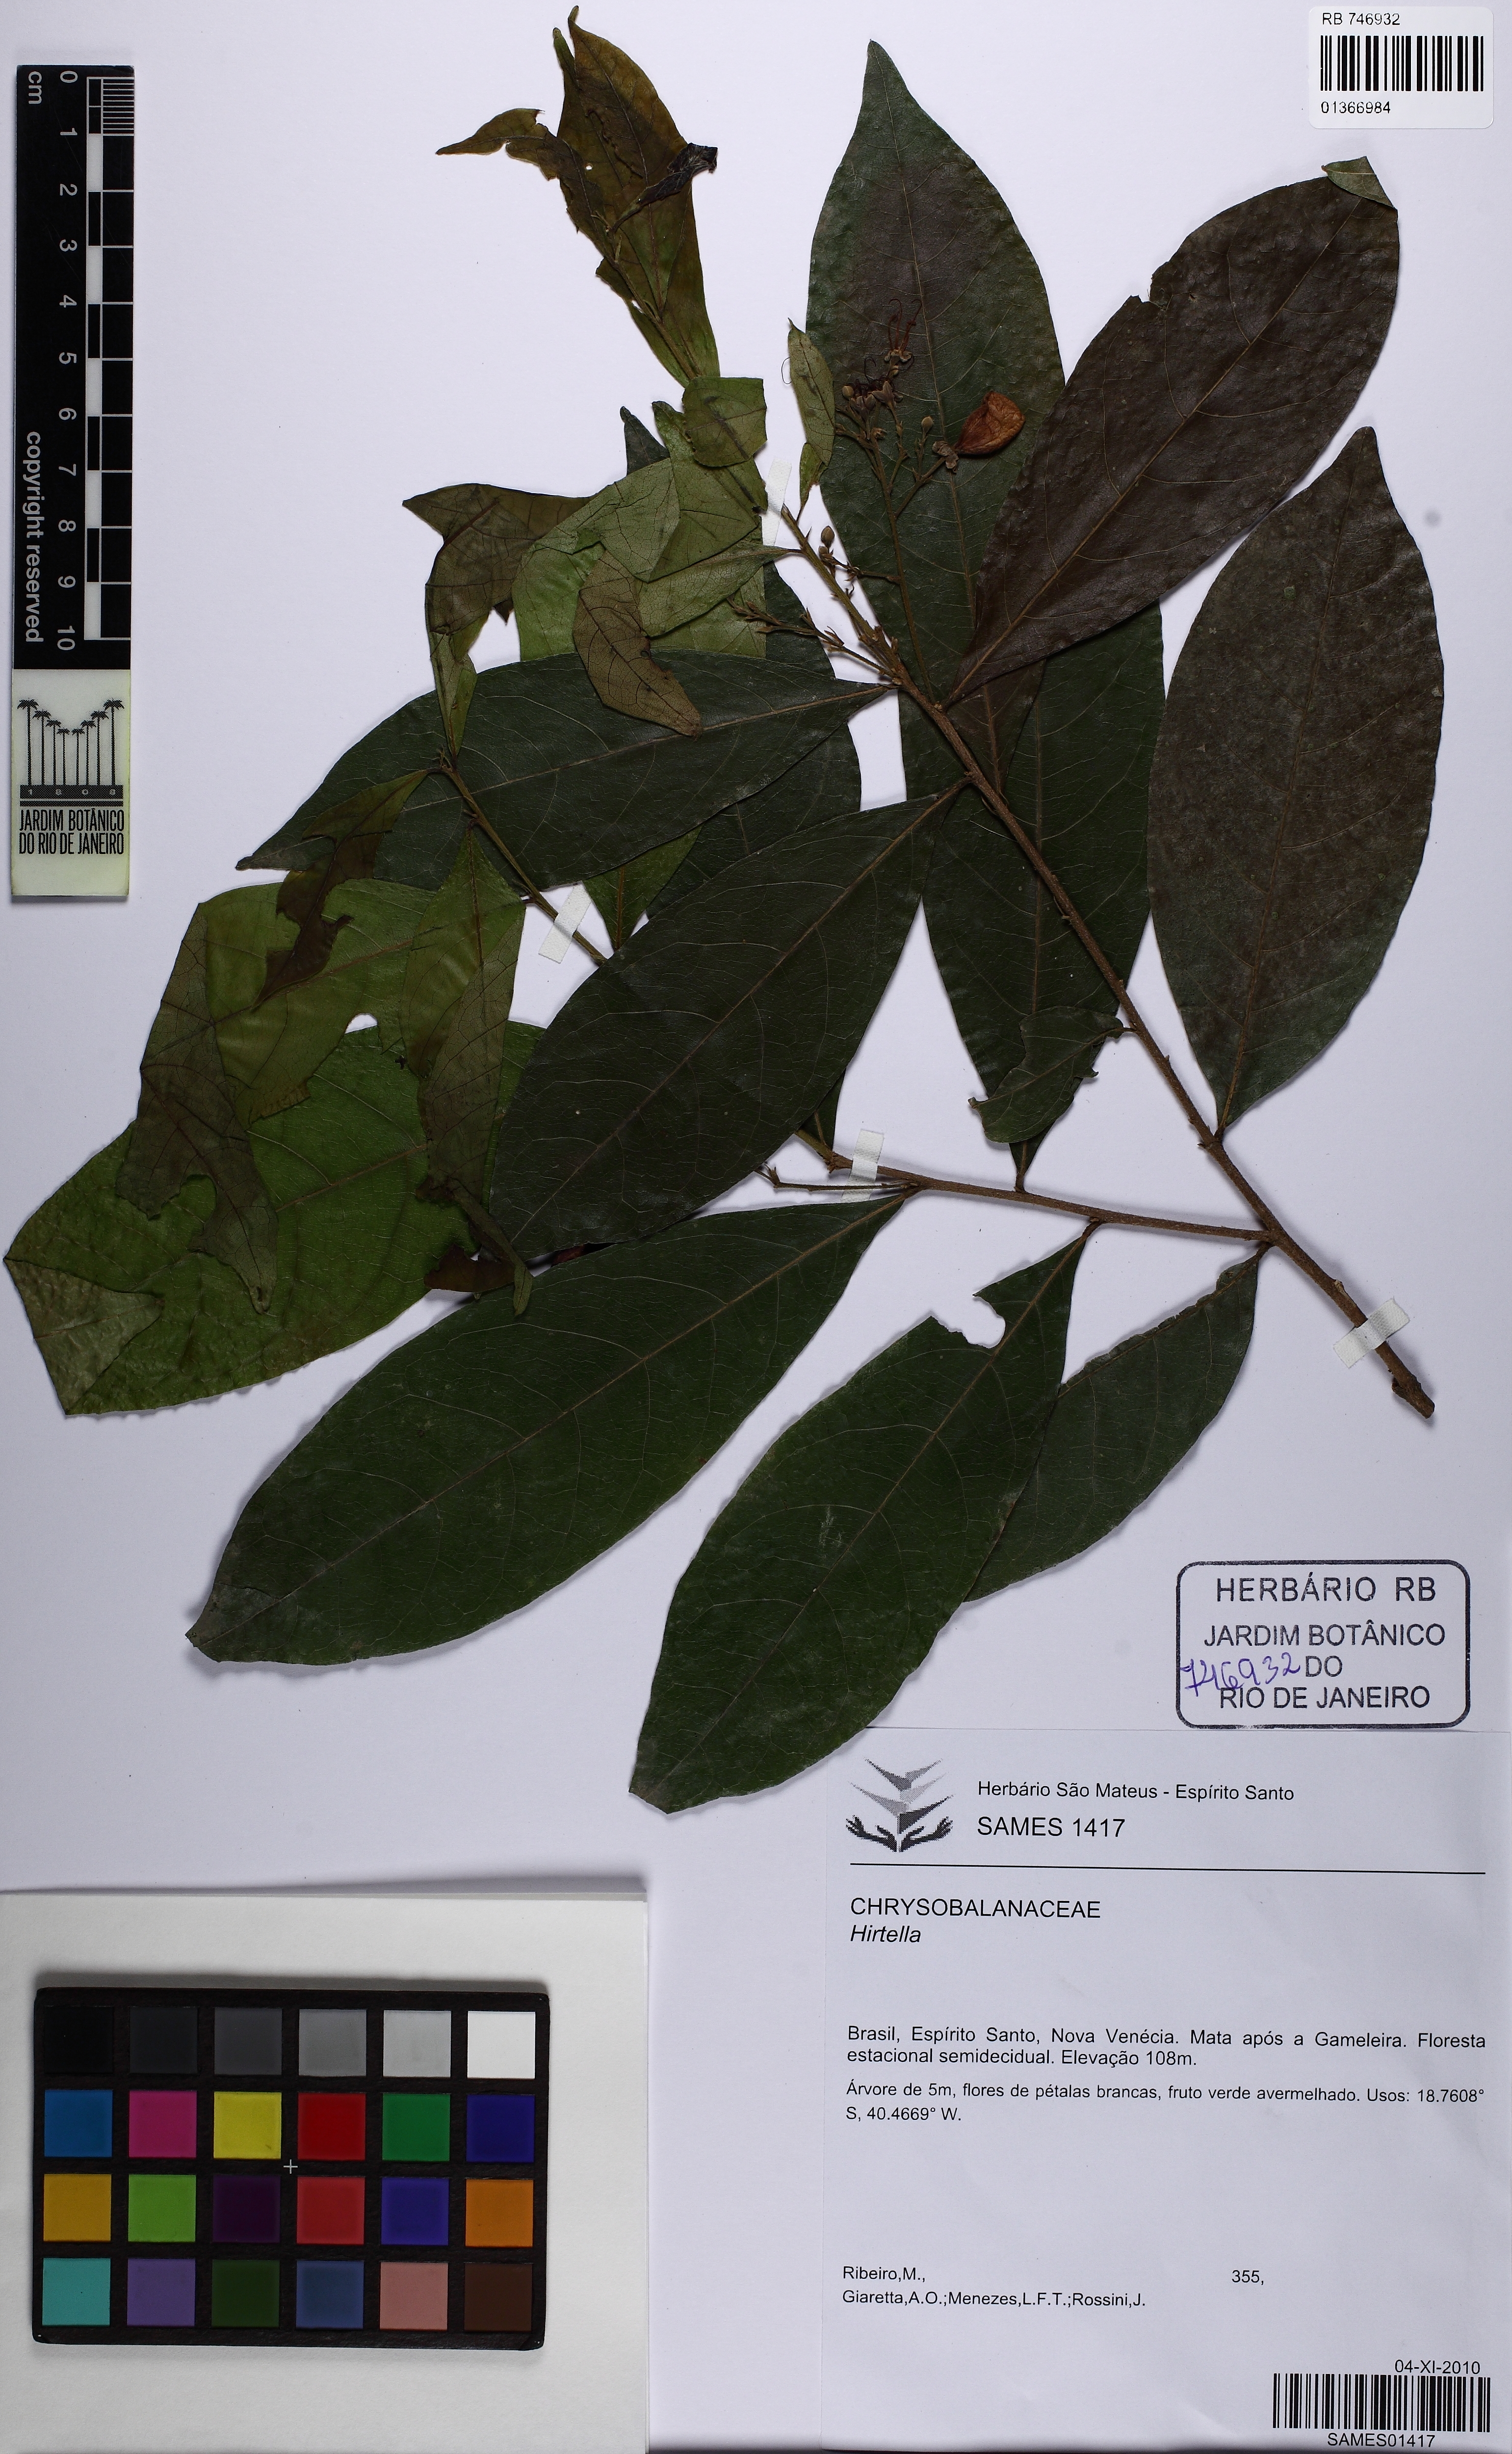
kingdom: Plantae
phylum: Tracheophyta
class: Magnoliopsida
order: Malpighiales
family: Chrysobalanaceae
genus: Hirtella
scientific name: Hirtella triandra
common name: Hairy plum
